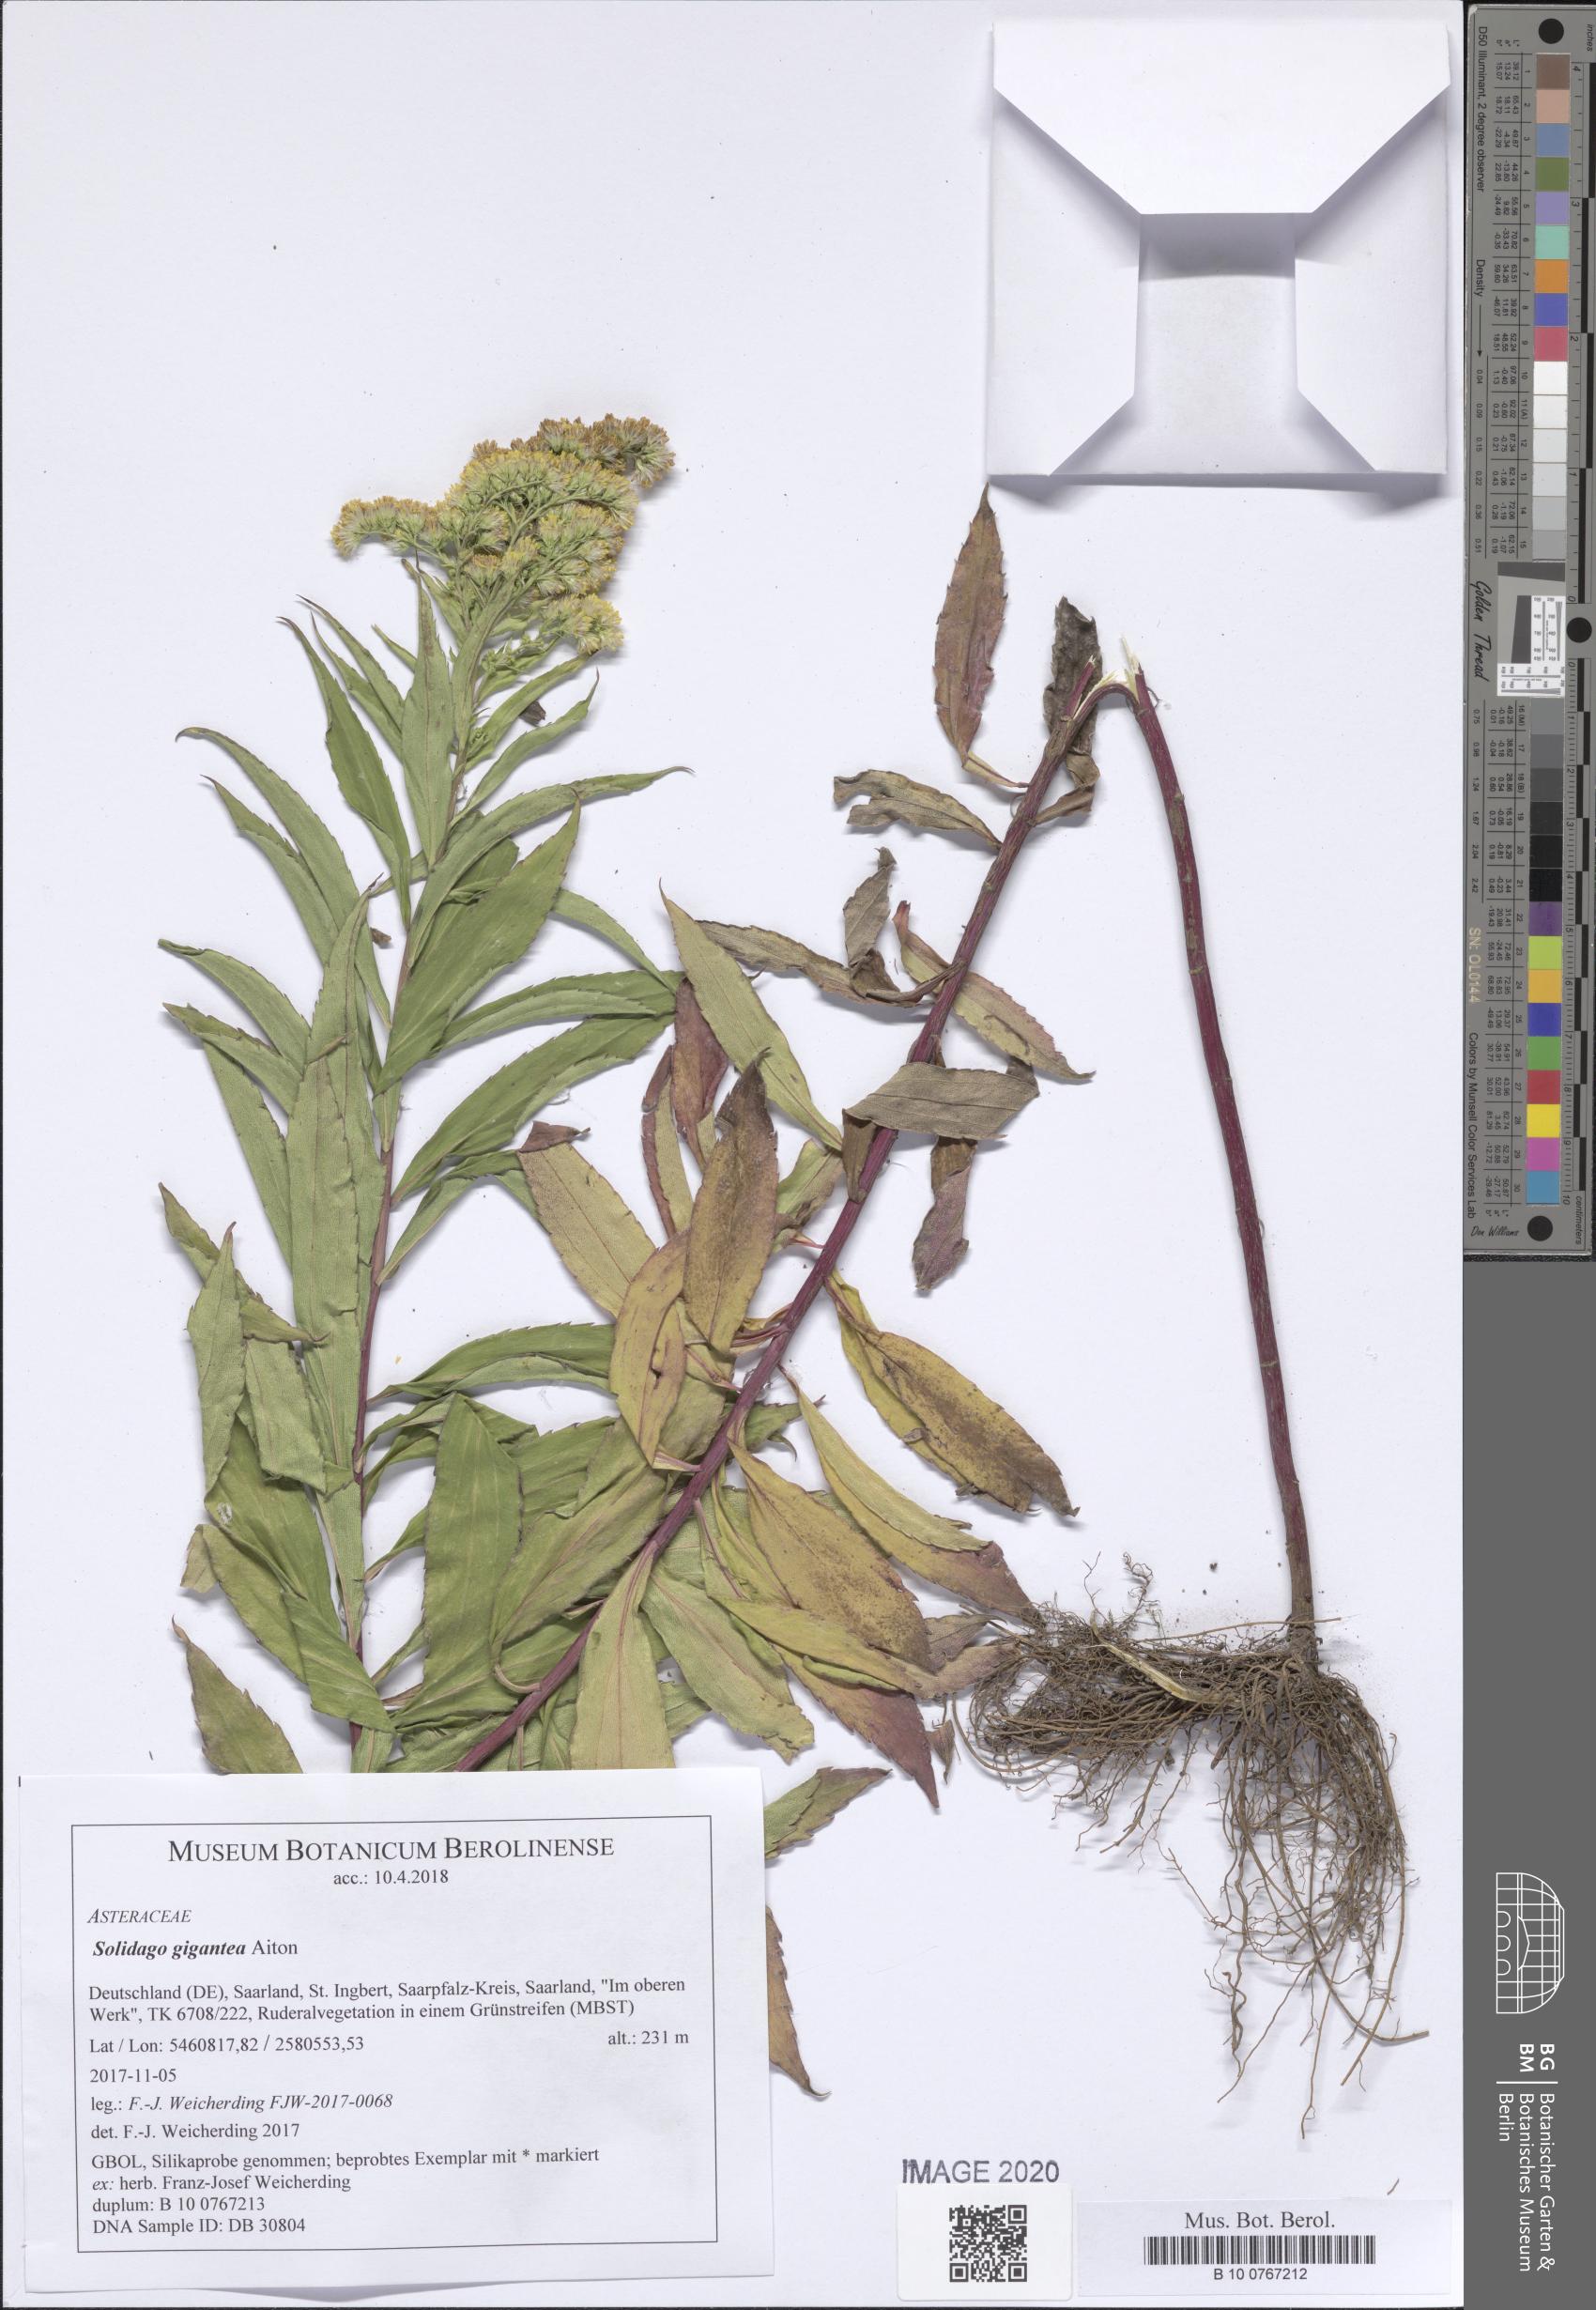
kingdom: Plantae
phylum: Tracheophyta
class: Magnoliopsida
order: Asterales
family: Asteraceae
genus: Solidago
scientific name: Solidago gigantea
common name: Giant goldenrod
